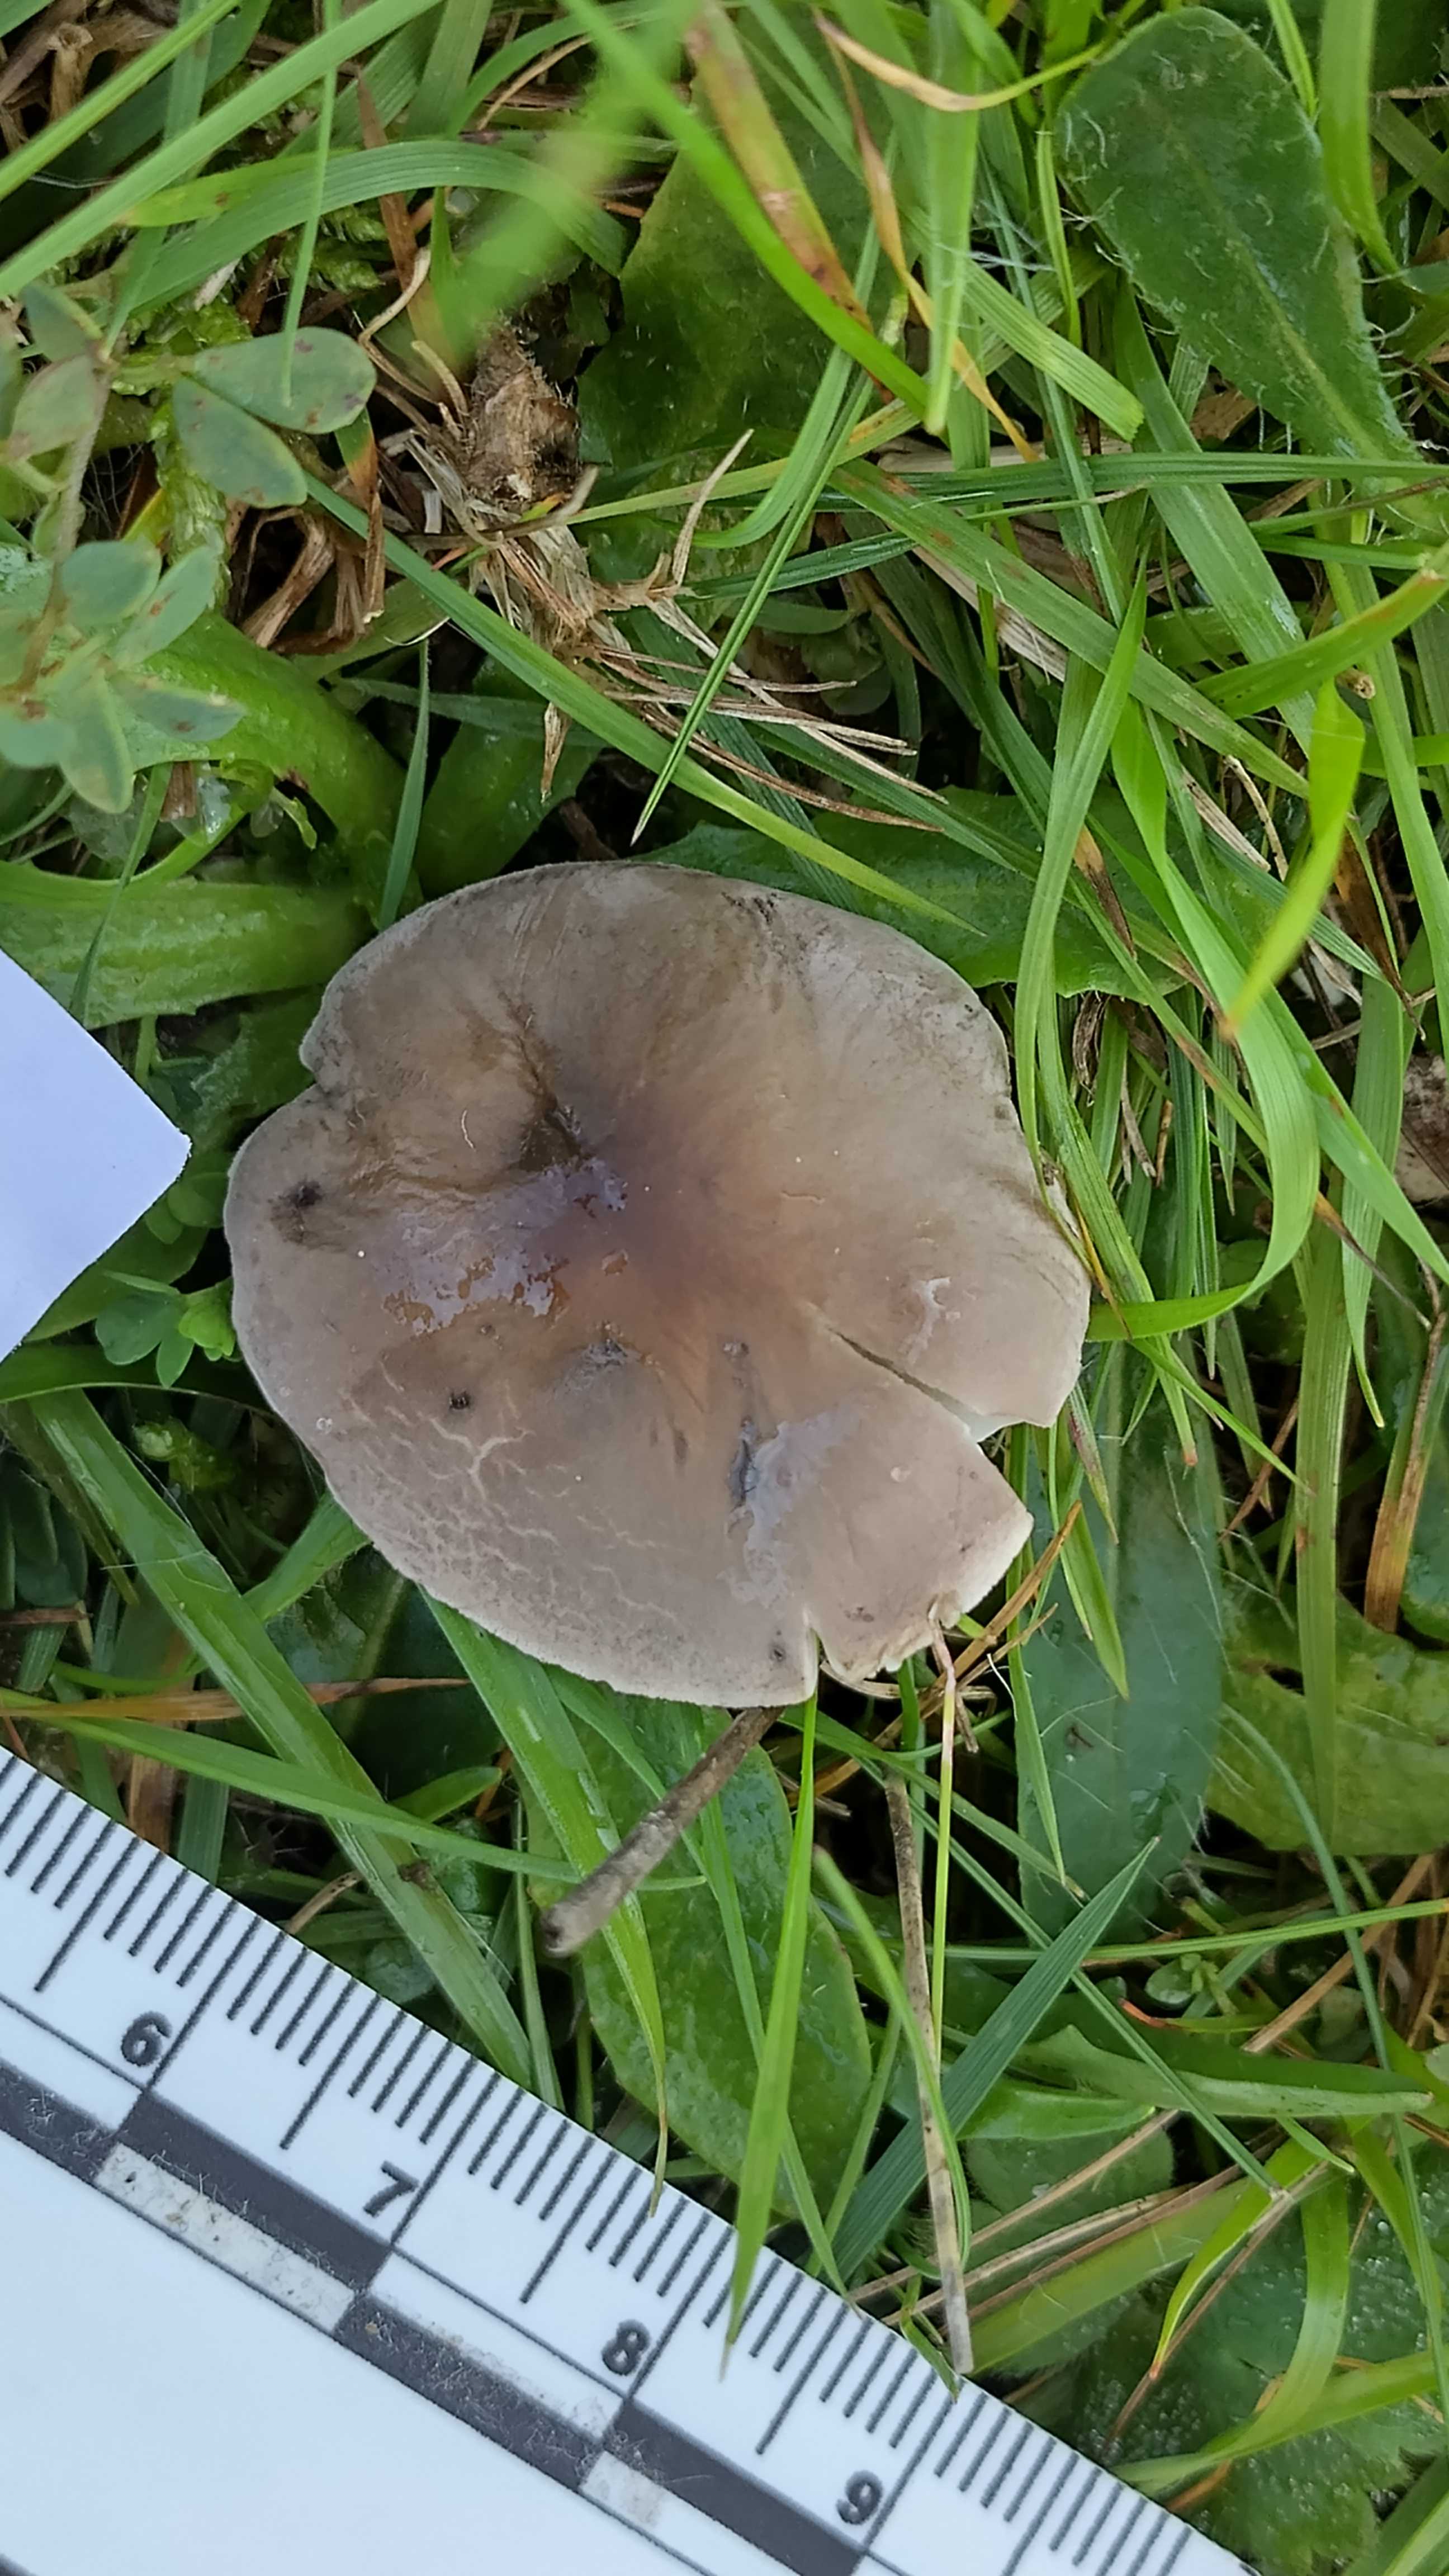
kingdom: Fungi
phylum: Basidiomycota
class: Agaricomycetes
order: Agaricales
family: Tricholomataceae
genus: Dermoloma
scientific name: Dermoloma cuneifolium
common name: eng-nonnehat
